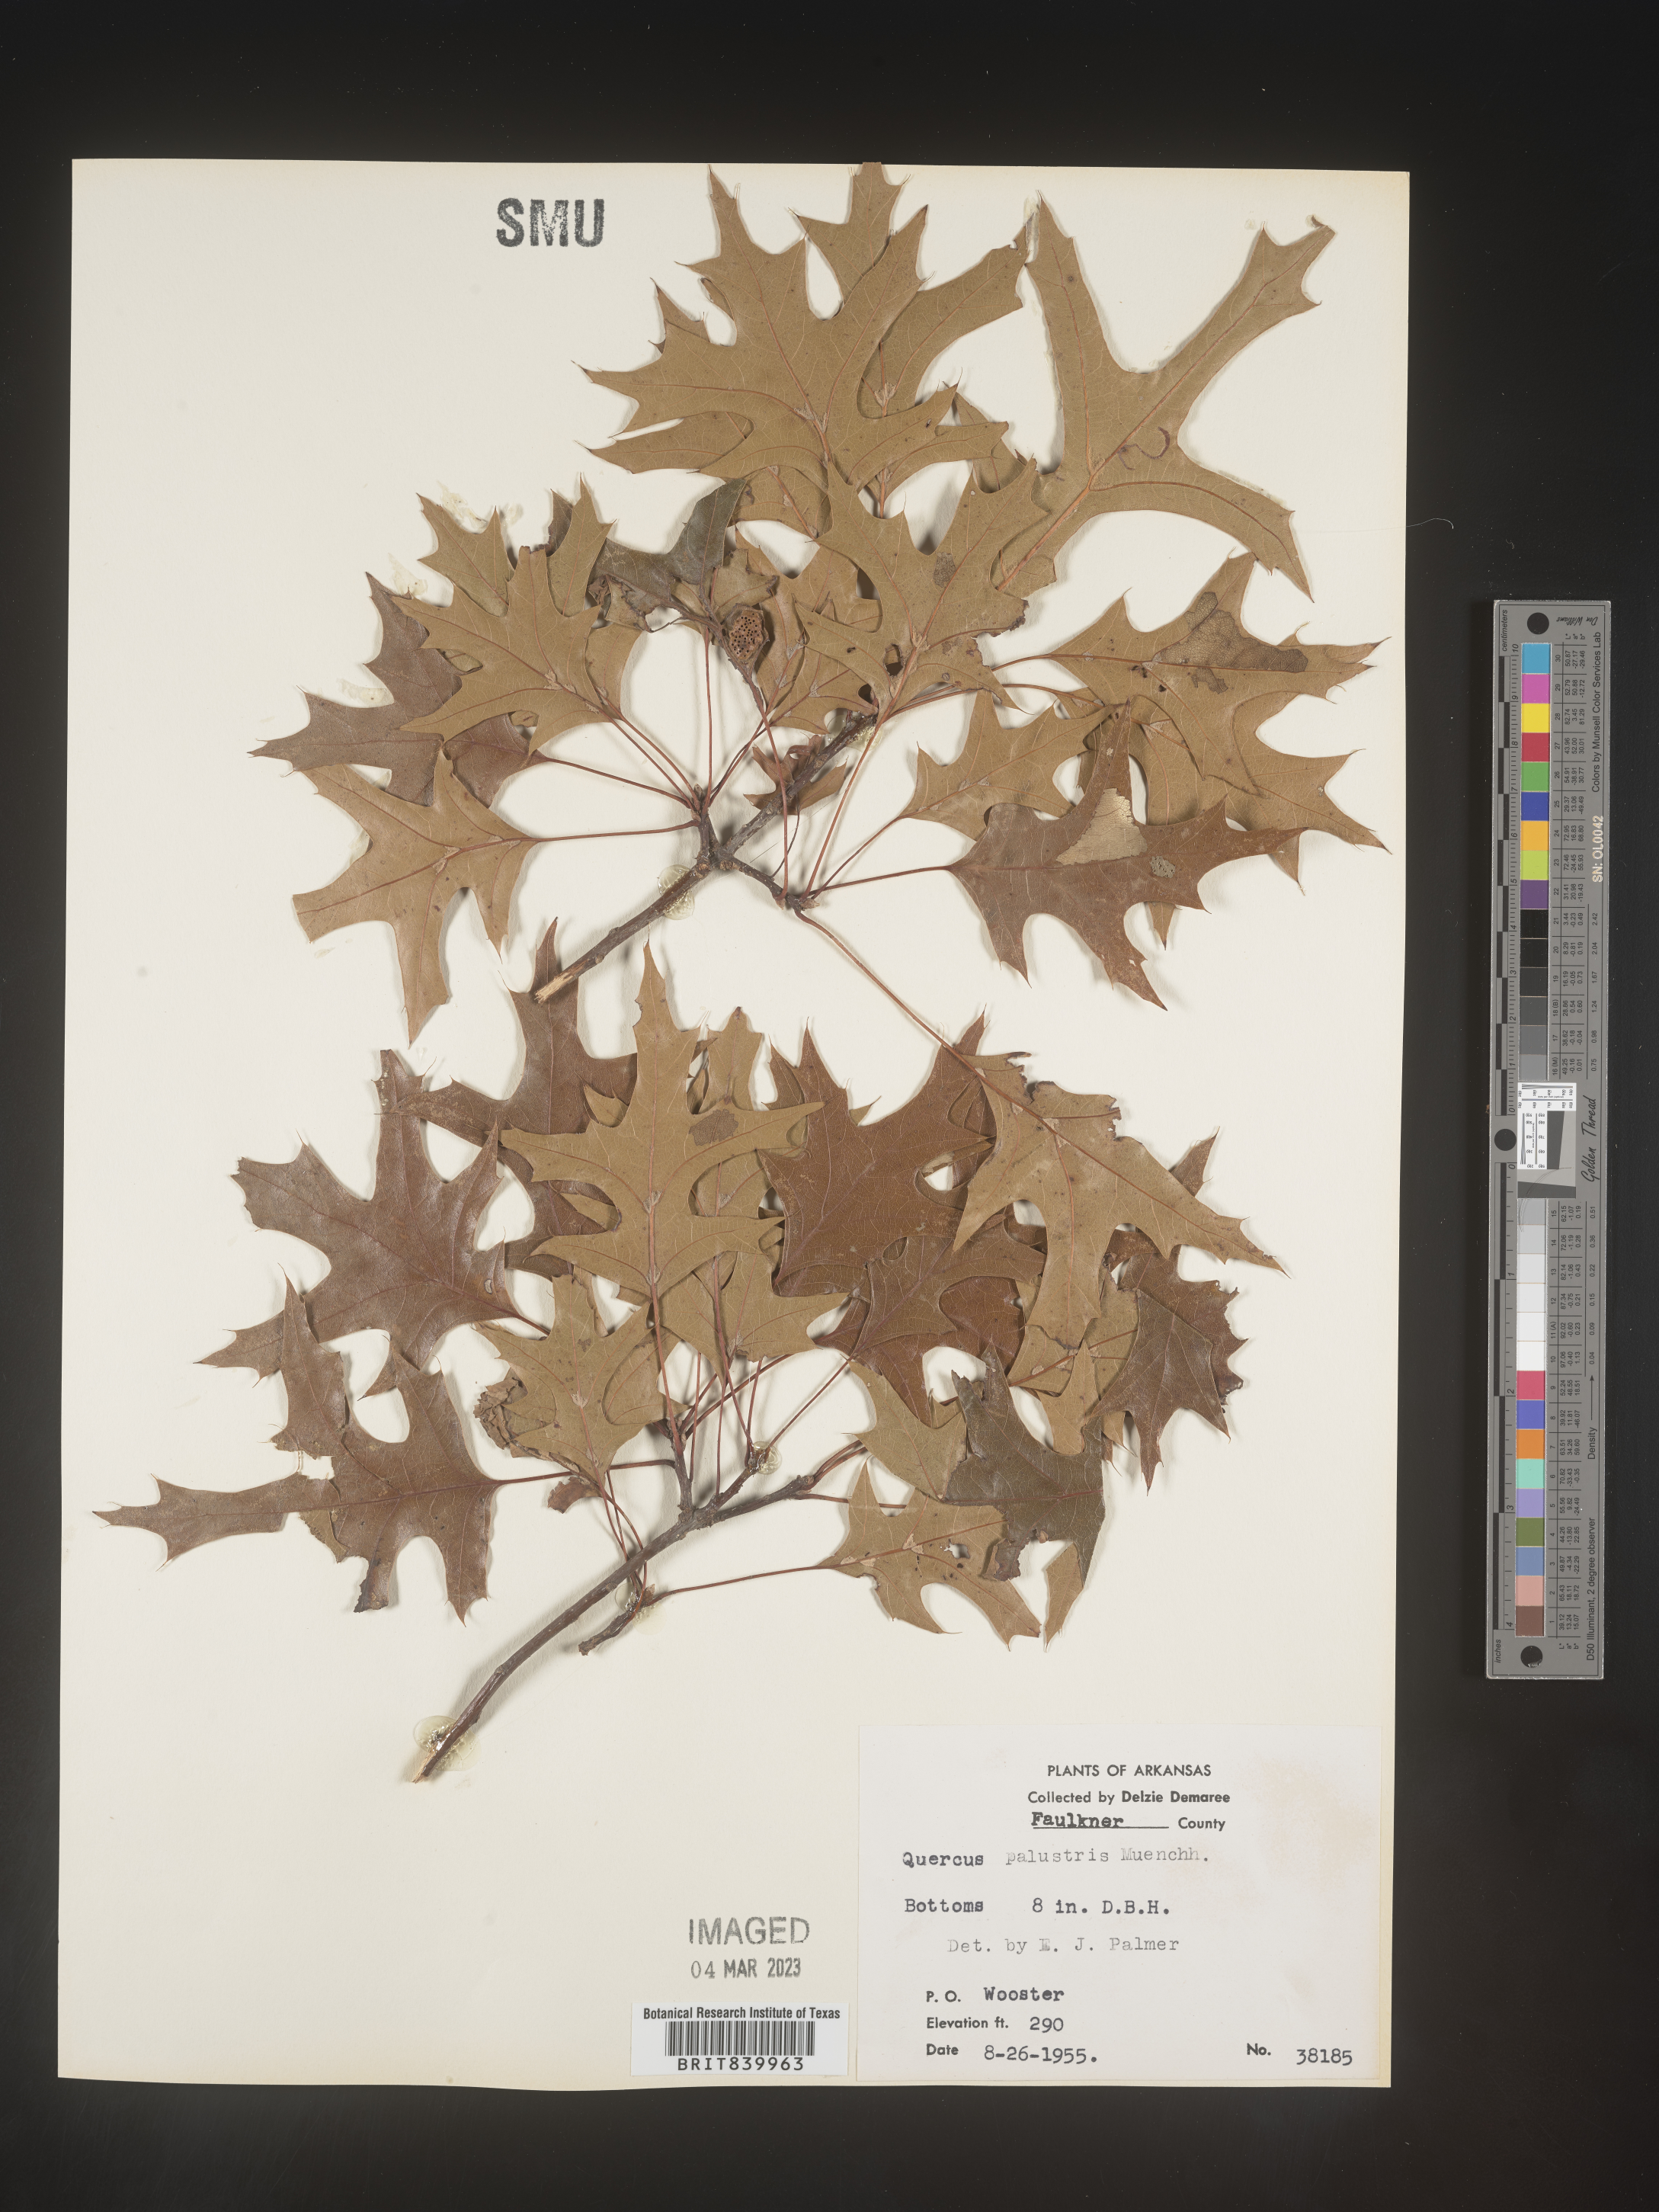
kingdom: Plantae
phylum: Tracheophyta
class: Magnoliopsida
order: Fagales
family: Fagaceae
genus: Quercus
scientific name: Quercus palustris
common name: Pin oak
